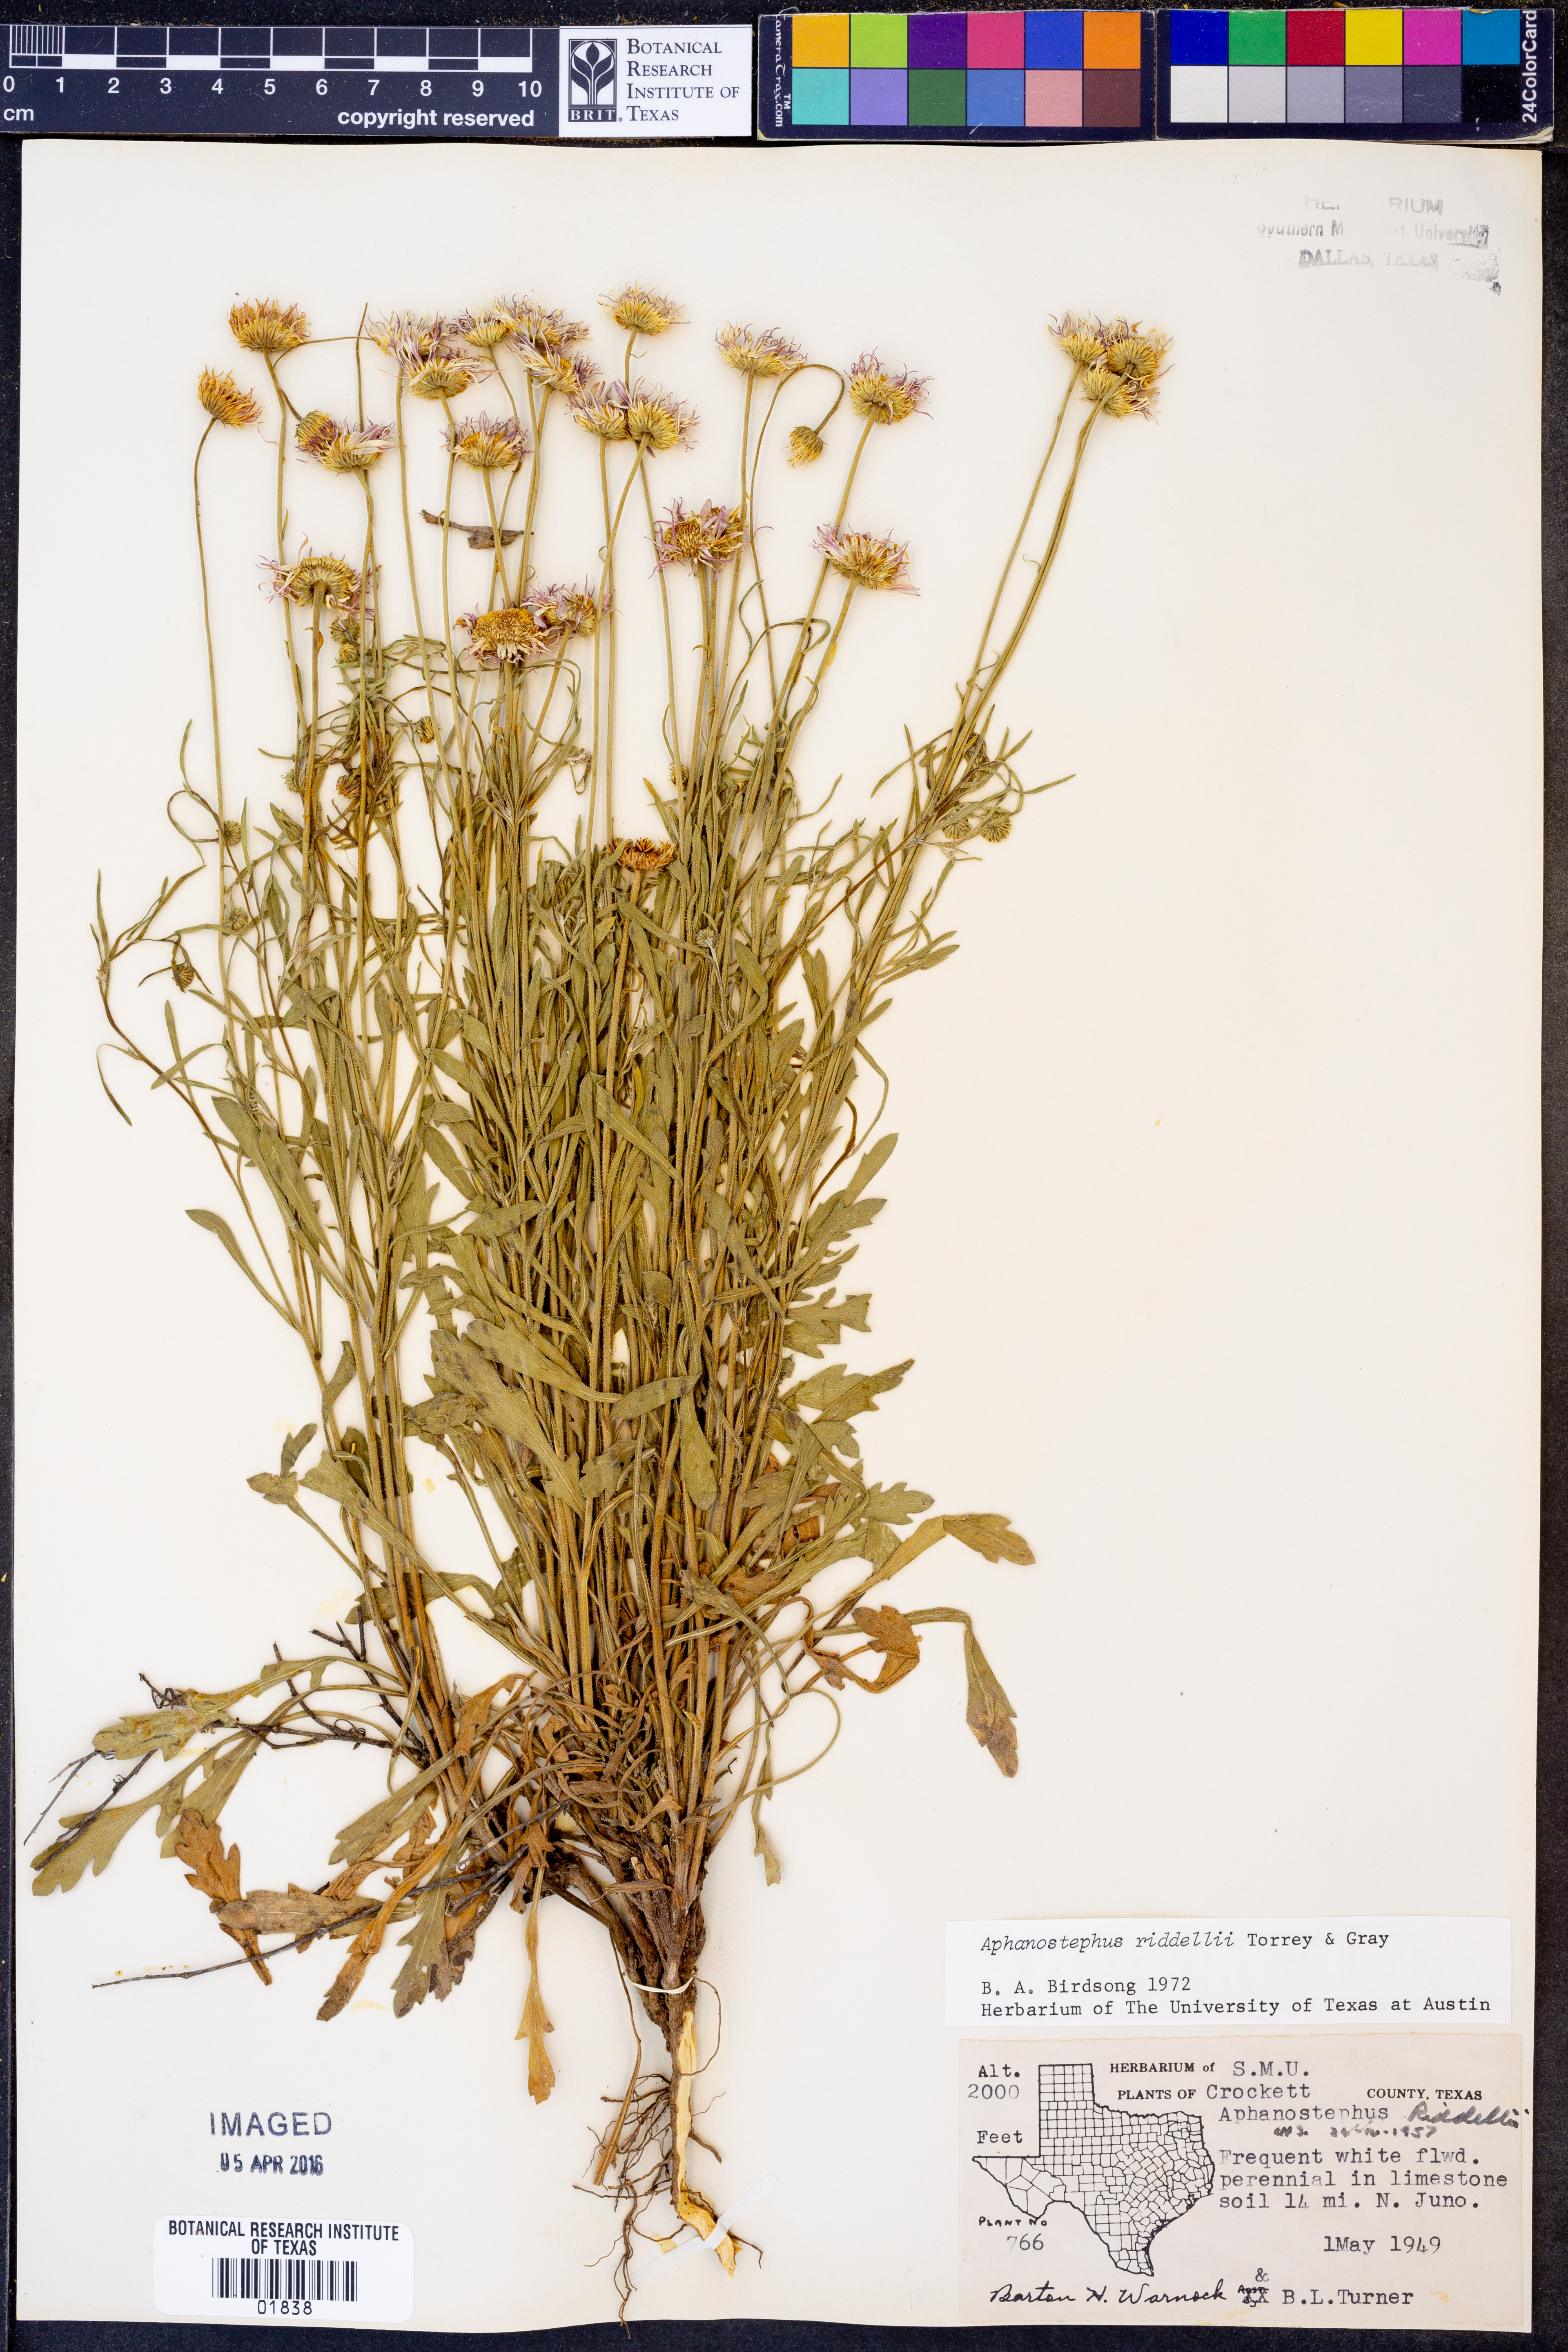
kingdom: Plantae
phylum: Tracheophyta
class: Magnoliopsida
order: Asterales
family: Asteraceae
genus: Aphanostephus
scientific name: Aphanostephus riddellii
